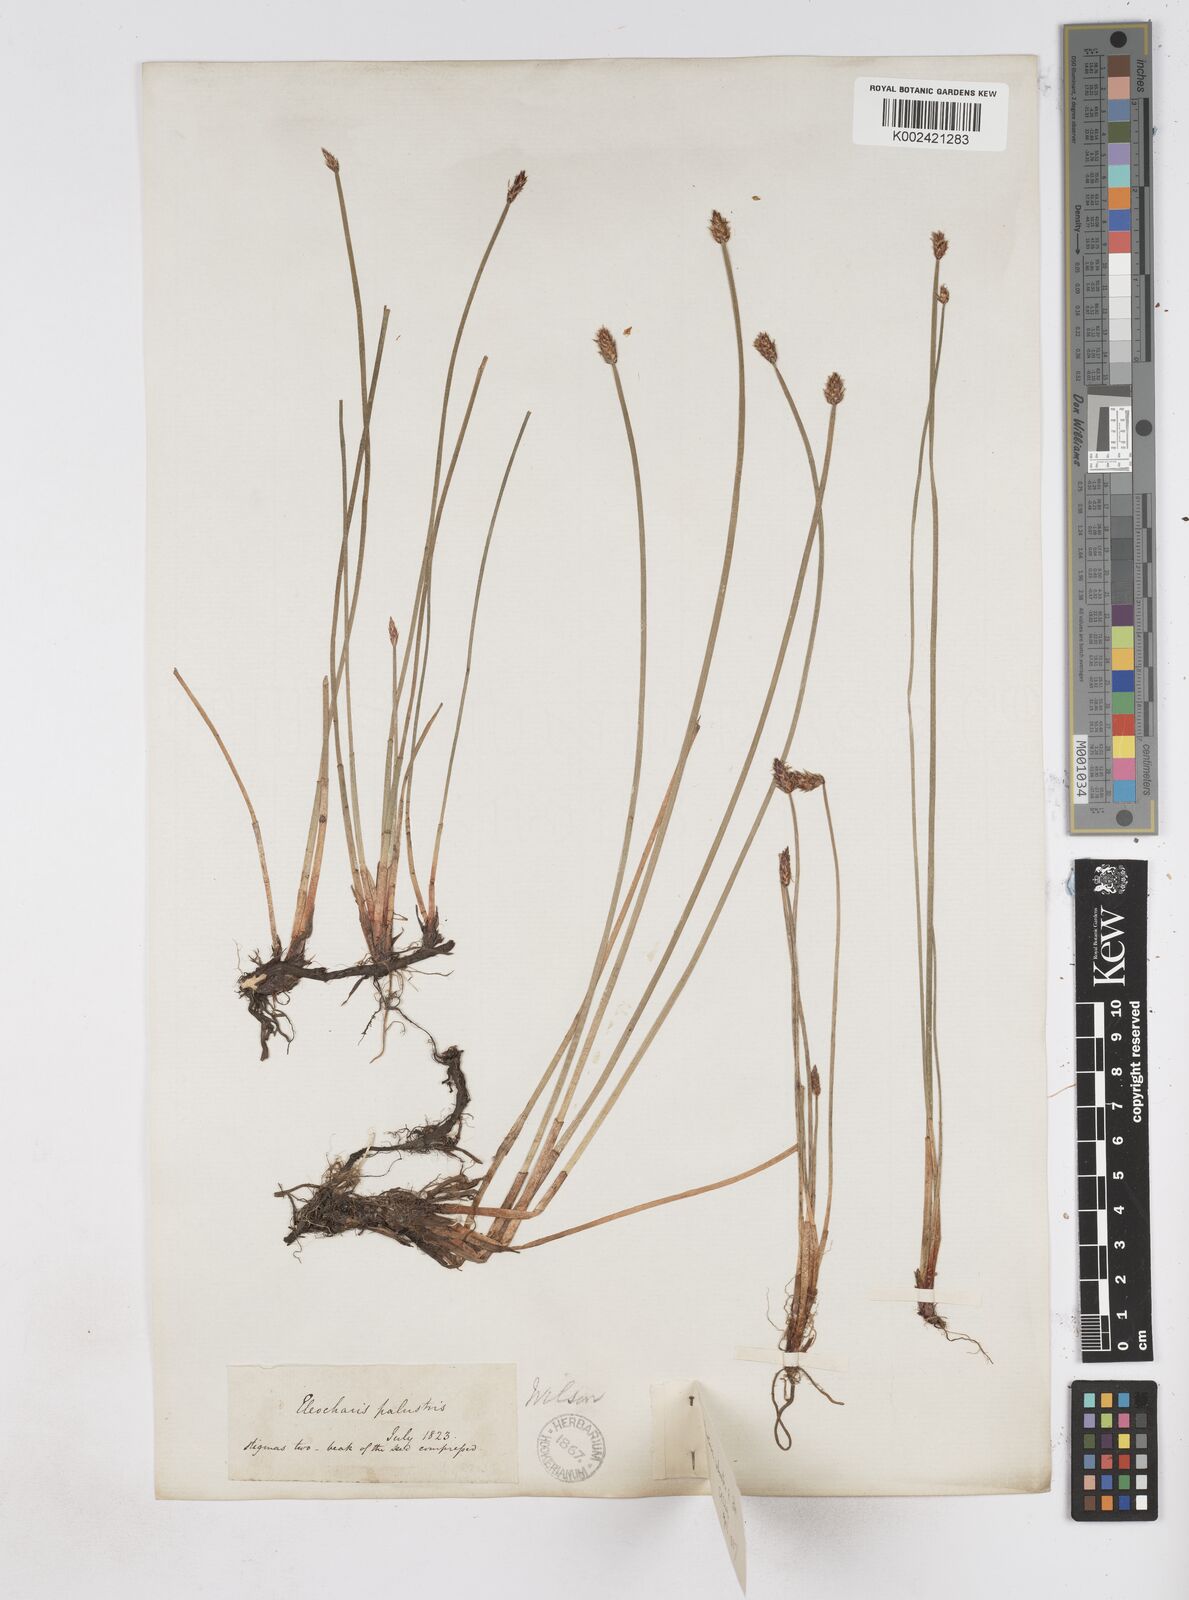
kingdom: Plantae
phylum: Tracheophyta
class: Liliopsida
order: Poales
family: Cyperaceae
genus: Eleocharis
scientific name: Eleocharis palustris
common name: Common spike-rush
